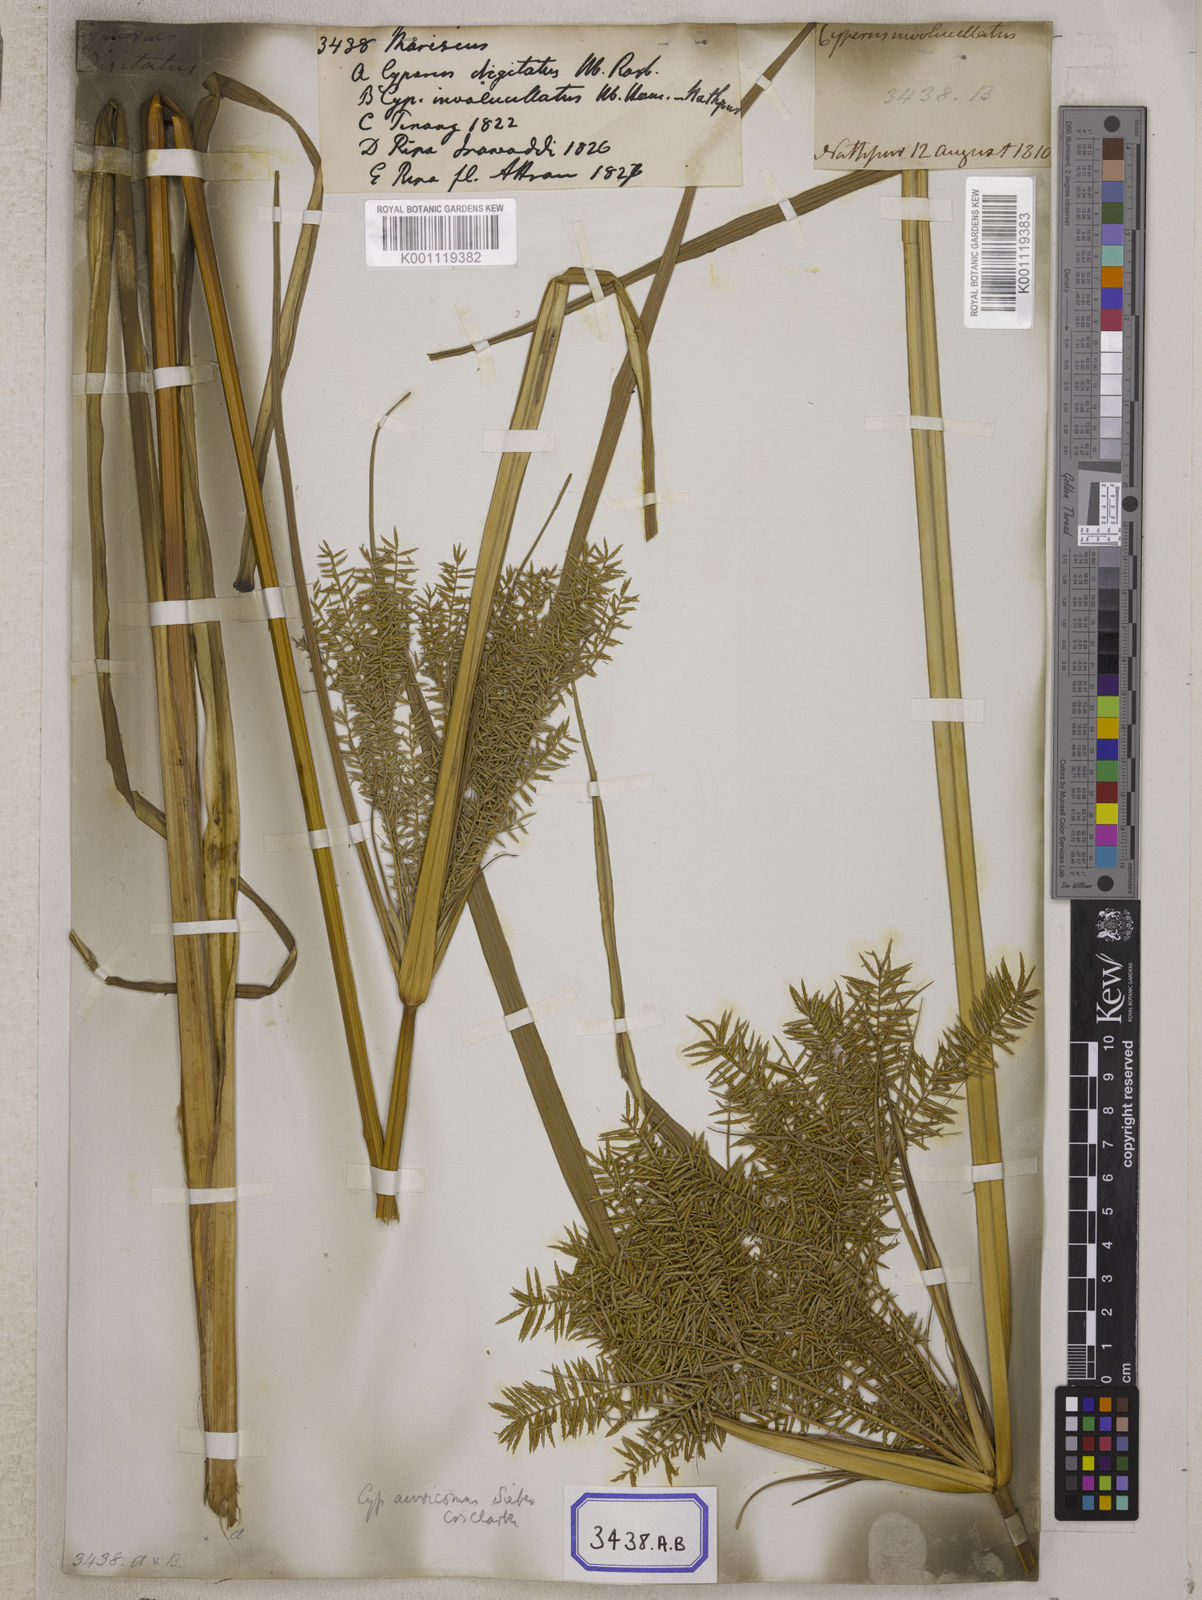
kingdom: Plantae
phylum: Tracheophyta
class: Liliopsida
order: Poales
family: Cyperaceae
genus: Mariscus
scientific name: Mariscus
